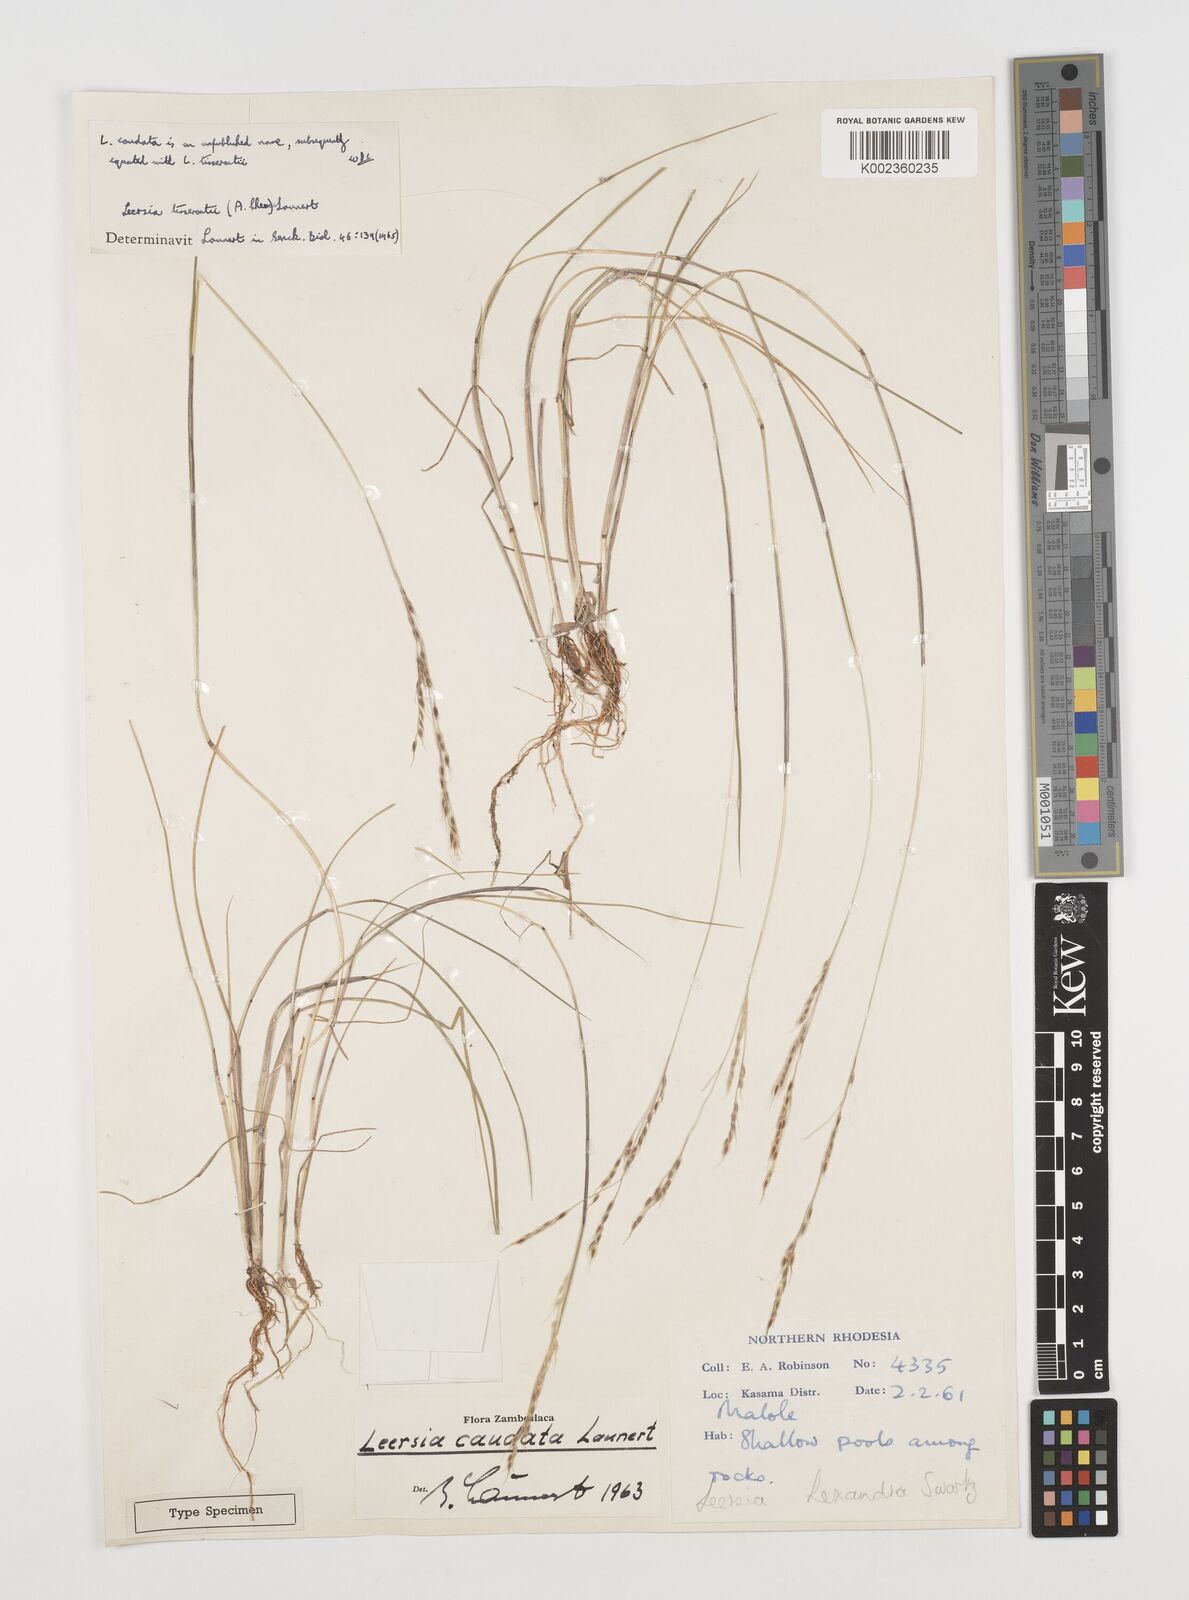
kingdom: Plantae
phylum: Tracheophyta
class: Liliopsida
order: Poales
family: Poaceae
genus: Leersia
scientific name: Leersia tisserantii
